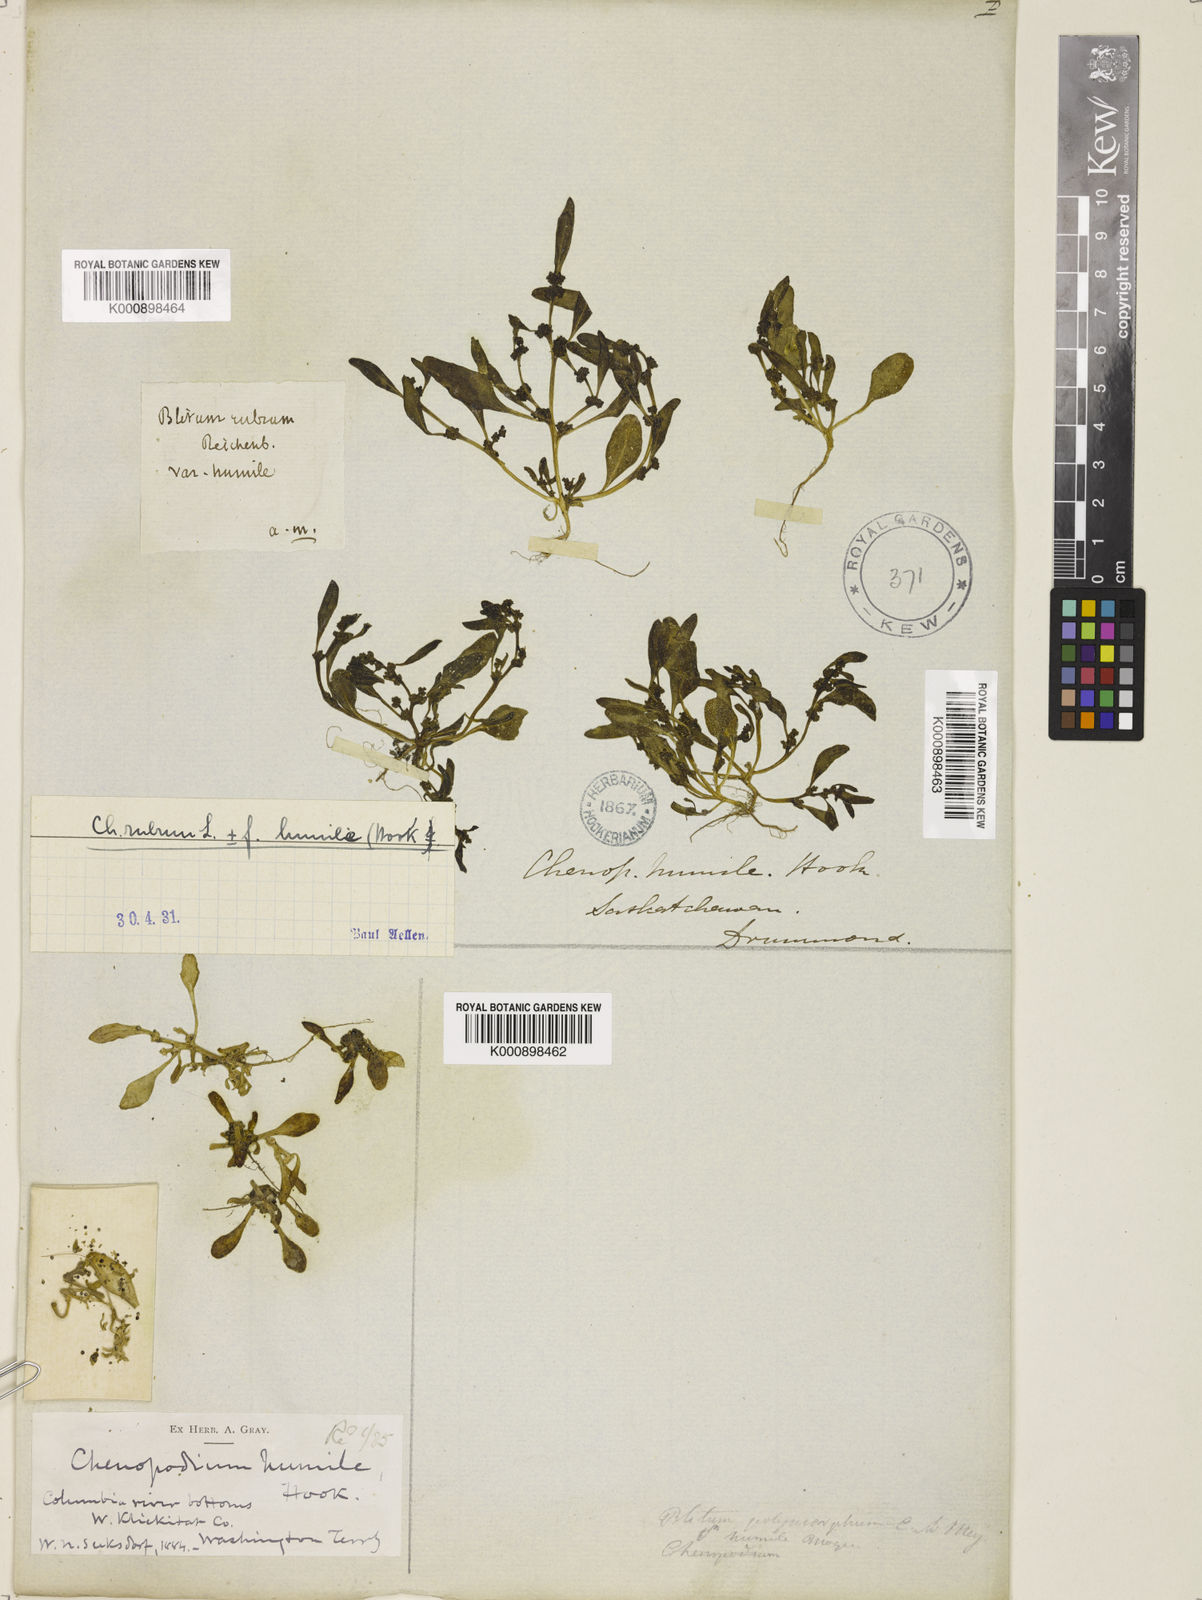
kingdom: Plantae
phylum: Tracheophyta
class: Magnoliopsida
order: Caryophyllales
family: Amaranthaceae
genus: Oxybasis
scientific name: Oxybasis rubra
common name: Red goosefoot
